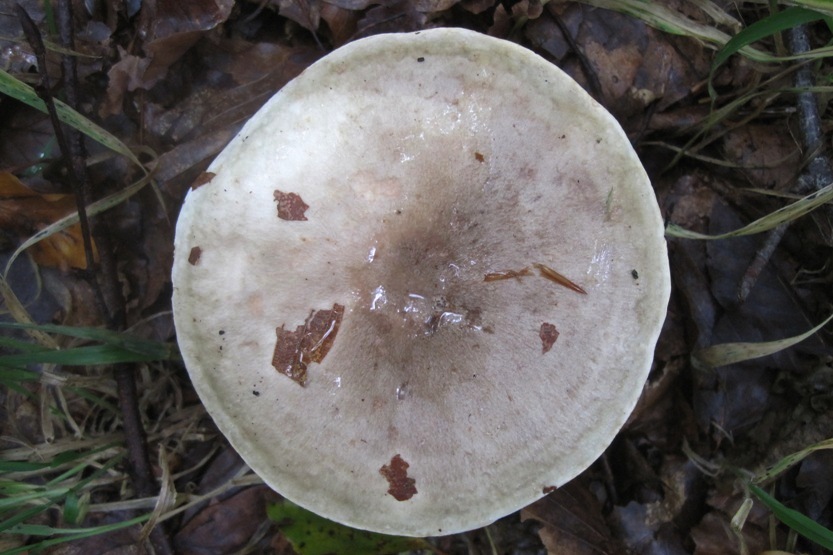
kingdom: Fungi
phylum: Basidiomycota
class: Agaricomycetes
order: Russulales
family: Russulaceae
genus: Lactarius
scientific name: Lactarius fluens
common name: lysrandet mælkehat
